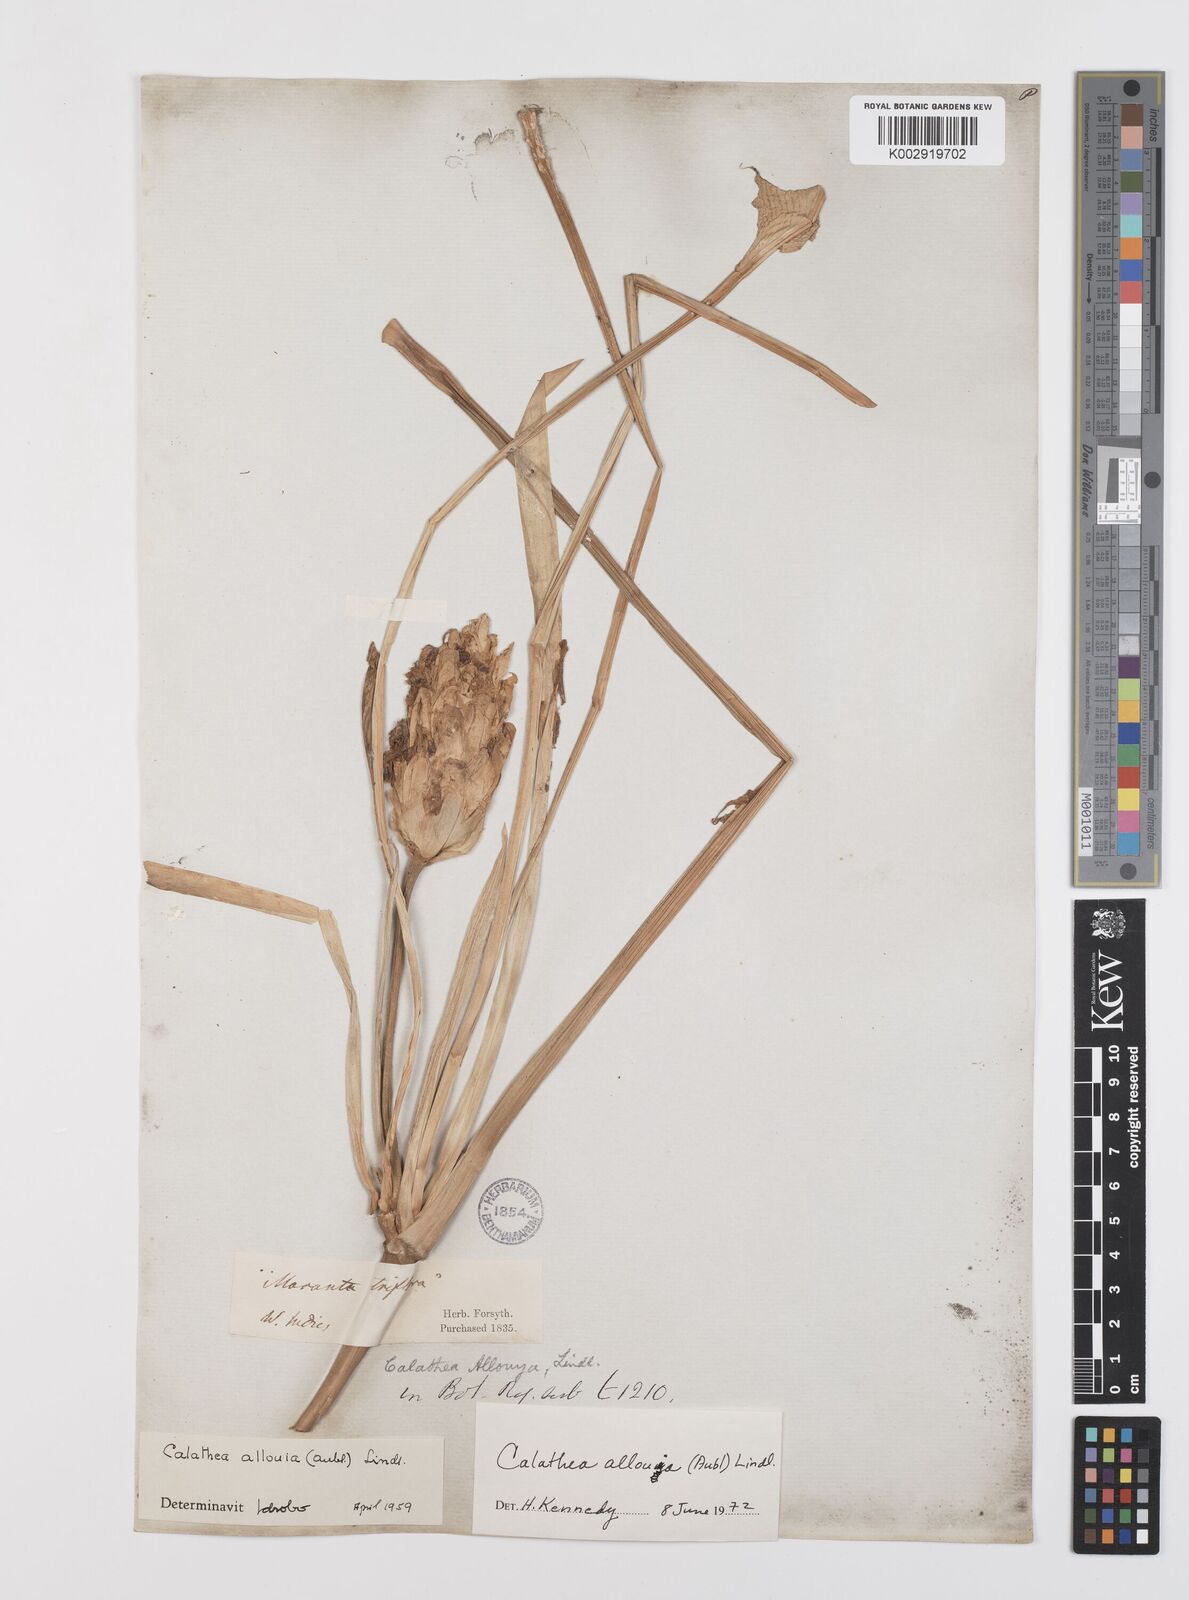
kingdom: Plantae
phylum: Tracheophyta
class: Liliopsida
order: Zingiberales
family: Marantaceae
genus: Goeppertia
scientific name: Goeppertia allouia
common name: Sweet corn-tuber
